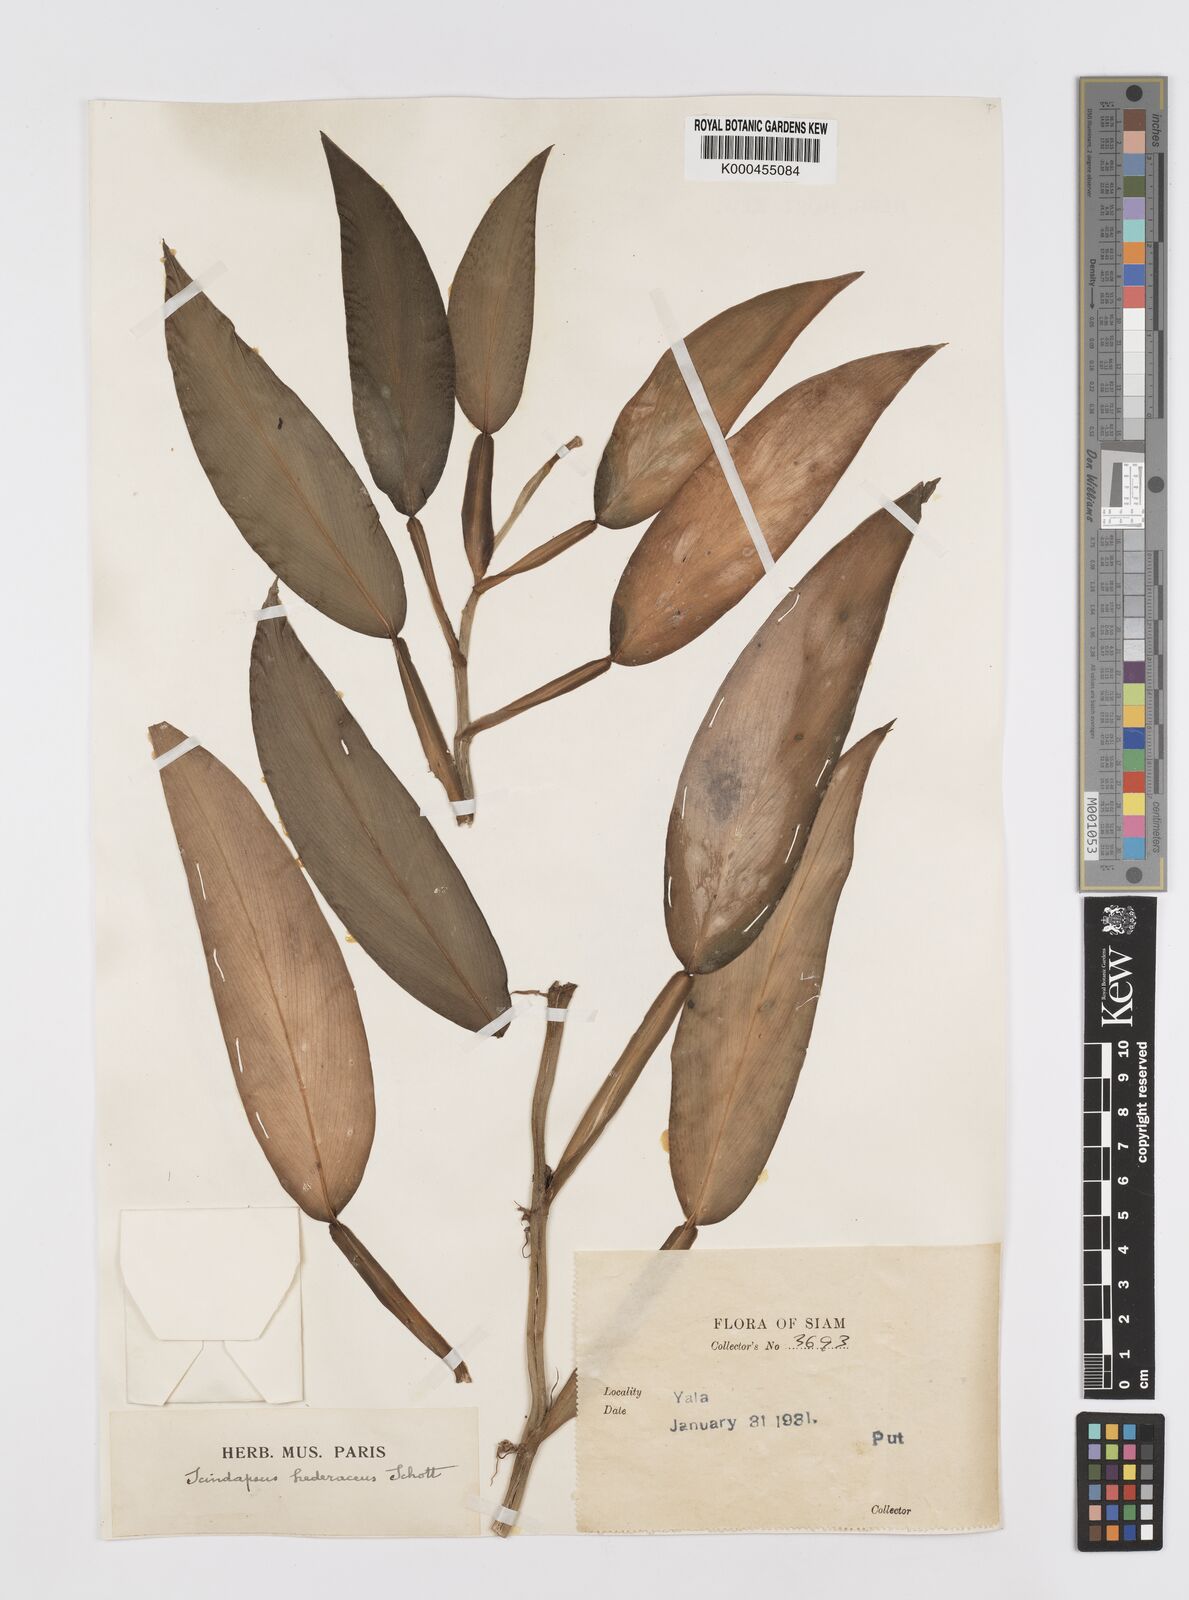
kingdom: Plantae
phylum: Tracheophyta
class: Liliopsida
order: Alismatales
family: Araceae
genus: Scindapsus
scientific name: Scindapsus hederaceus
